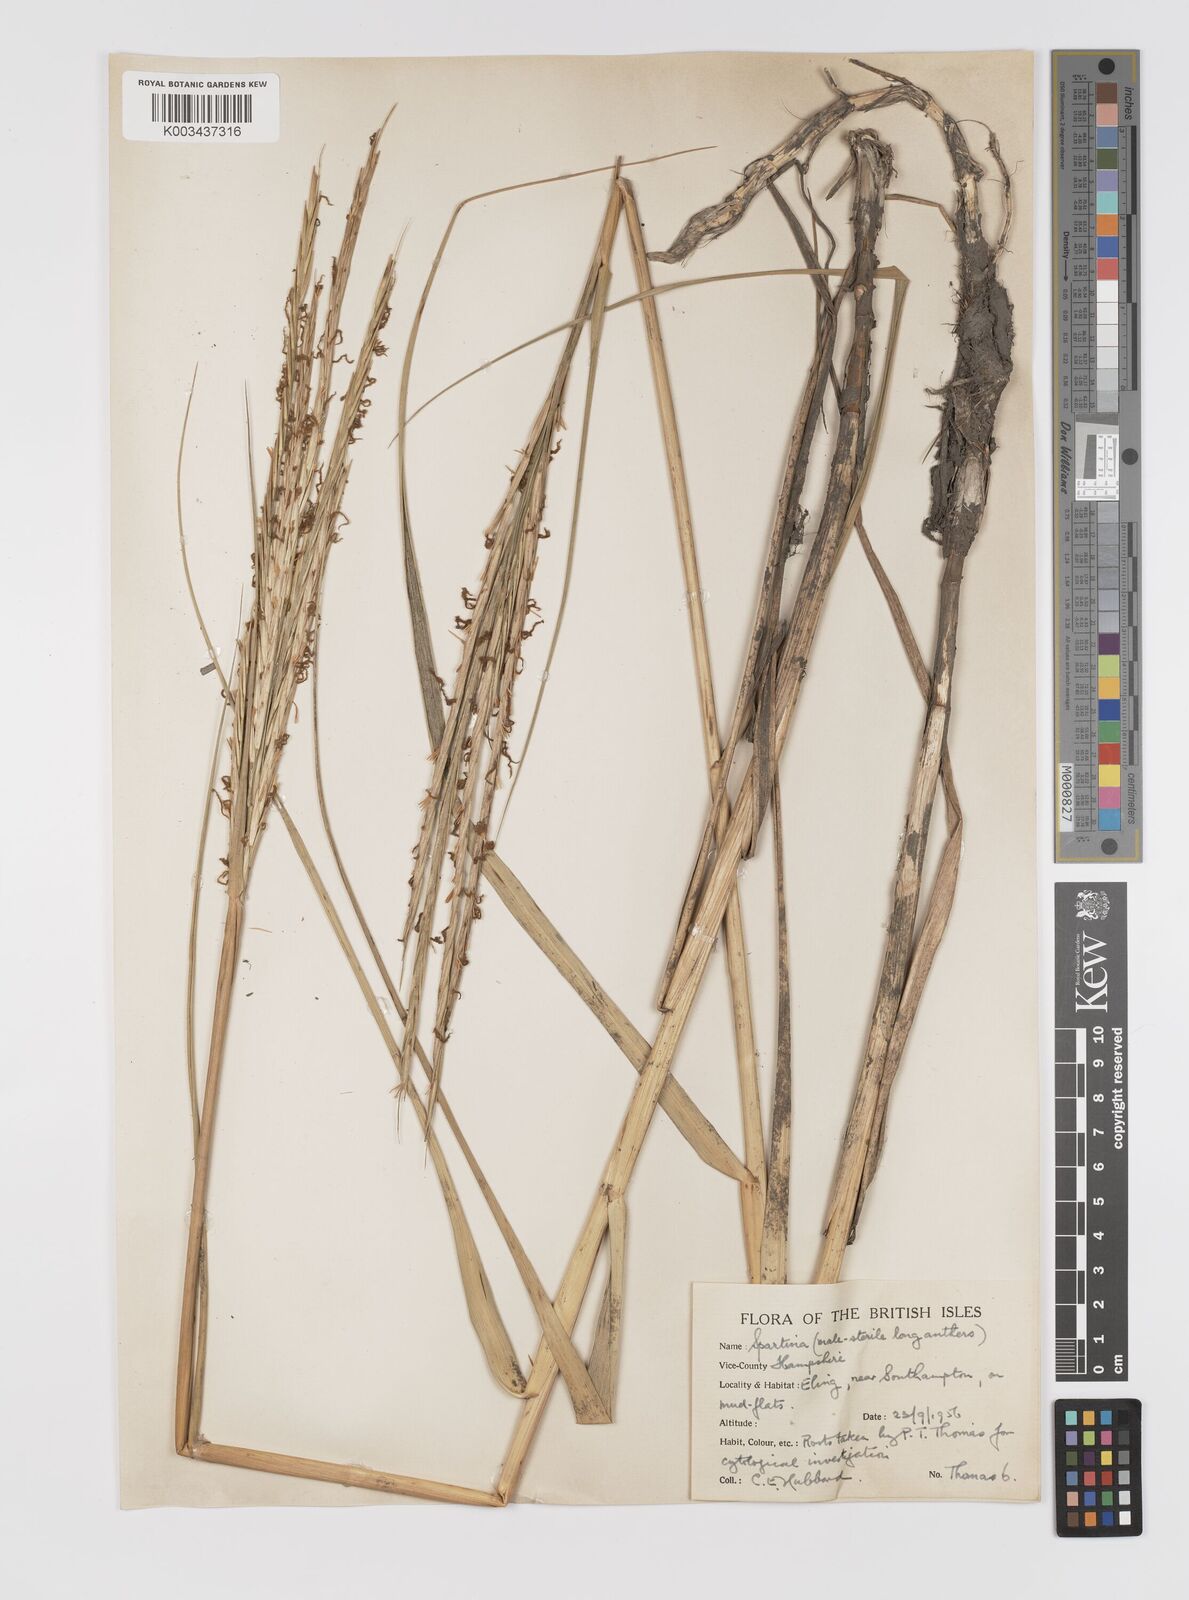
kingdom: Plantae
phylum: Tracheophyta
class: Liliopsida
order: Poales
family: Poaceae
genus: Sporobolus
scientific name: Sporobolus townsendii
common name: Townsend's cordgrass
